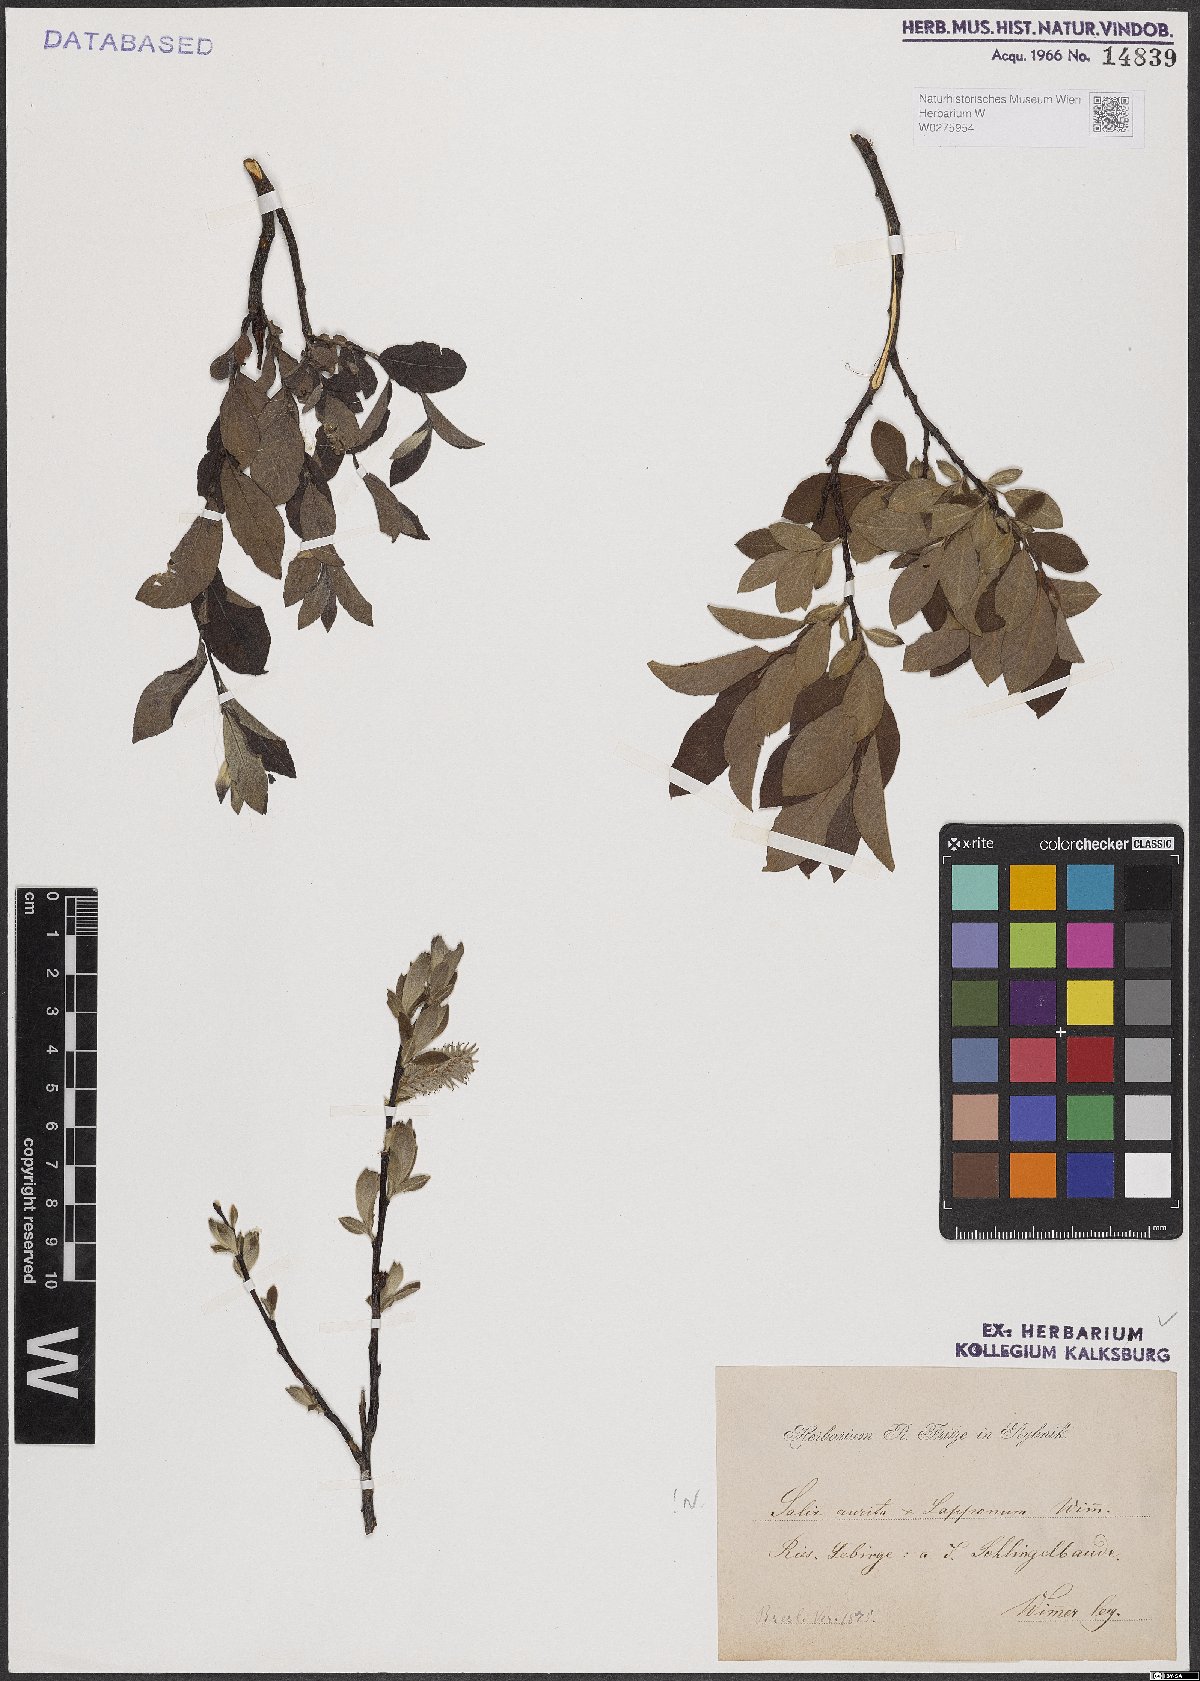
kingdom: Plantae
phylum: Tracheophyta
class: Magnoliopsida
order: Malpighiales
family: Salicaceae
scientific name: Salicaceae
